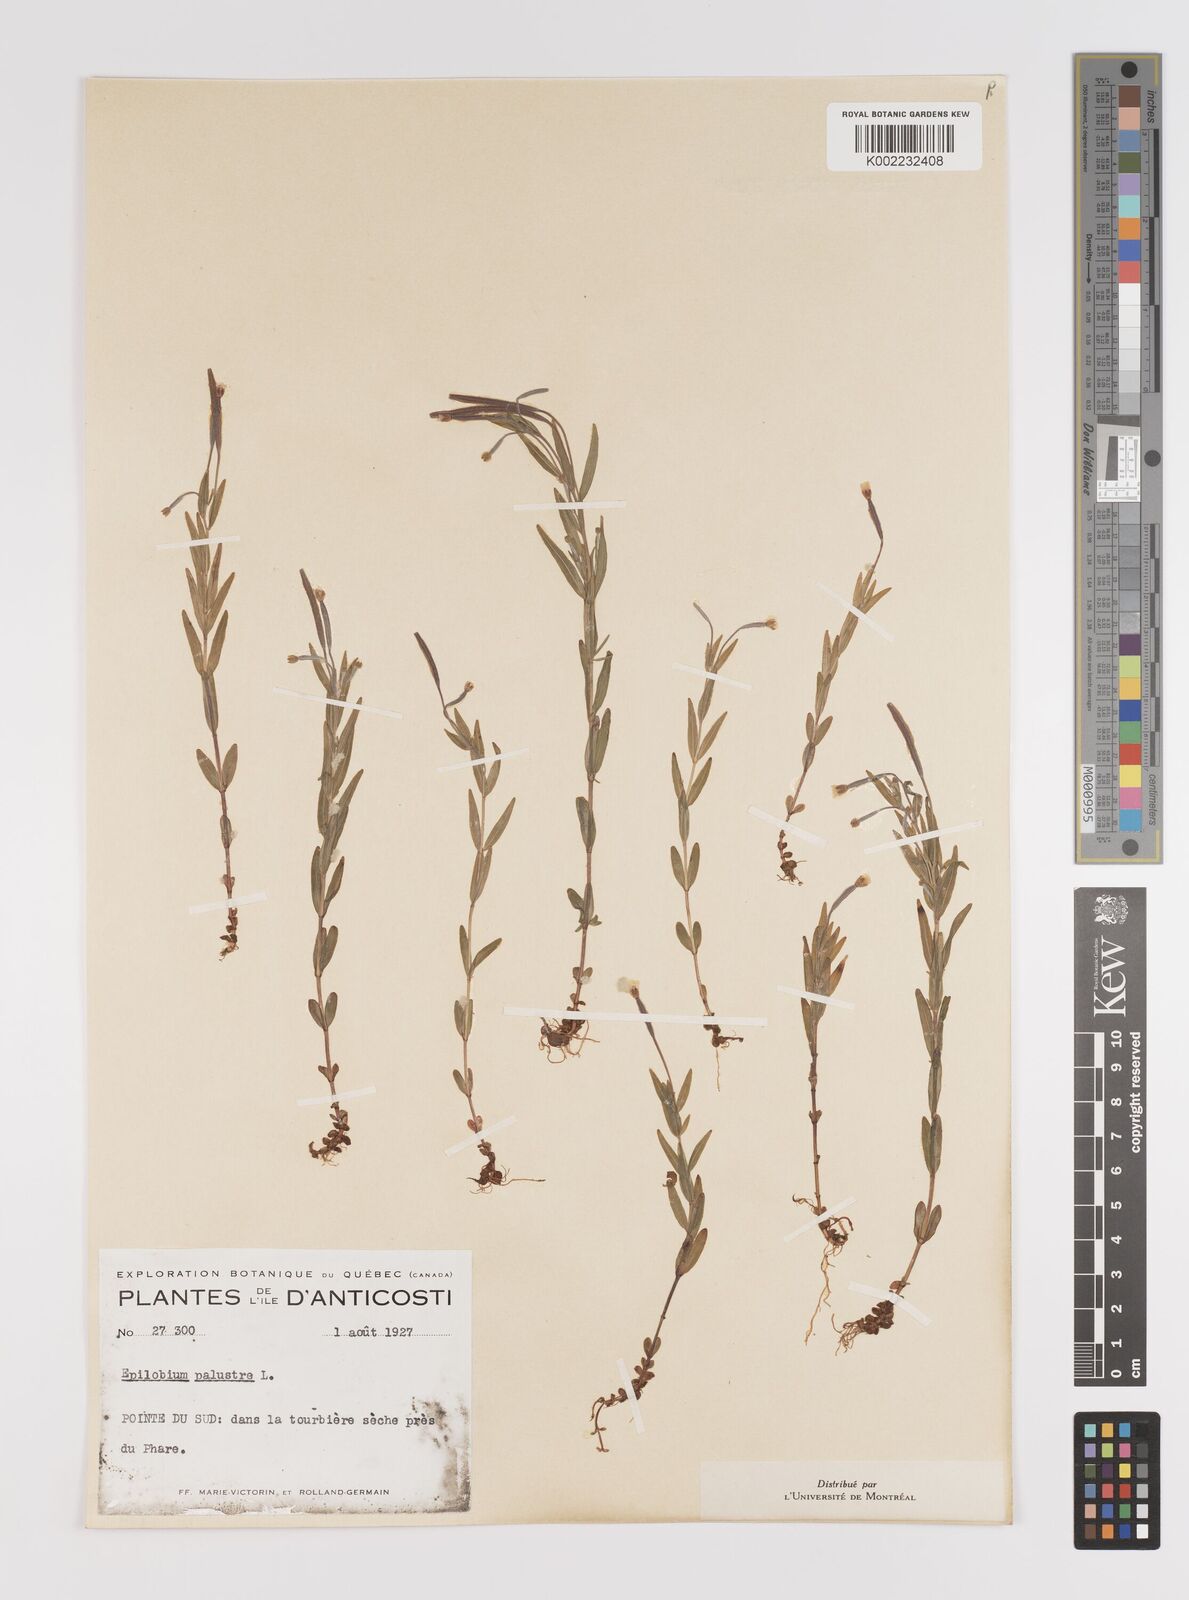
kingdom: Plantae
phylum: Tracheophyta
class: Magnoliopsida
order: Myrtales
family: Onagraceae
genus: Epilobium
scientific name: Epilobium palustre
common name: Marsh willowherb
